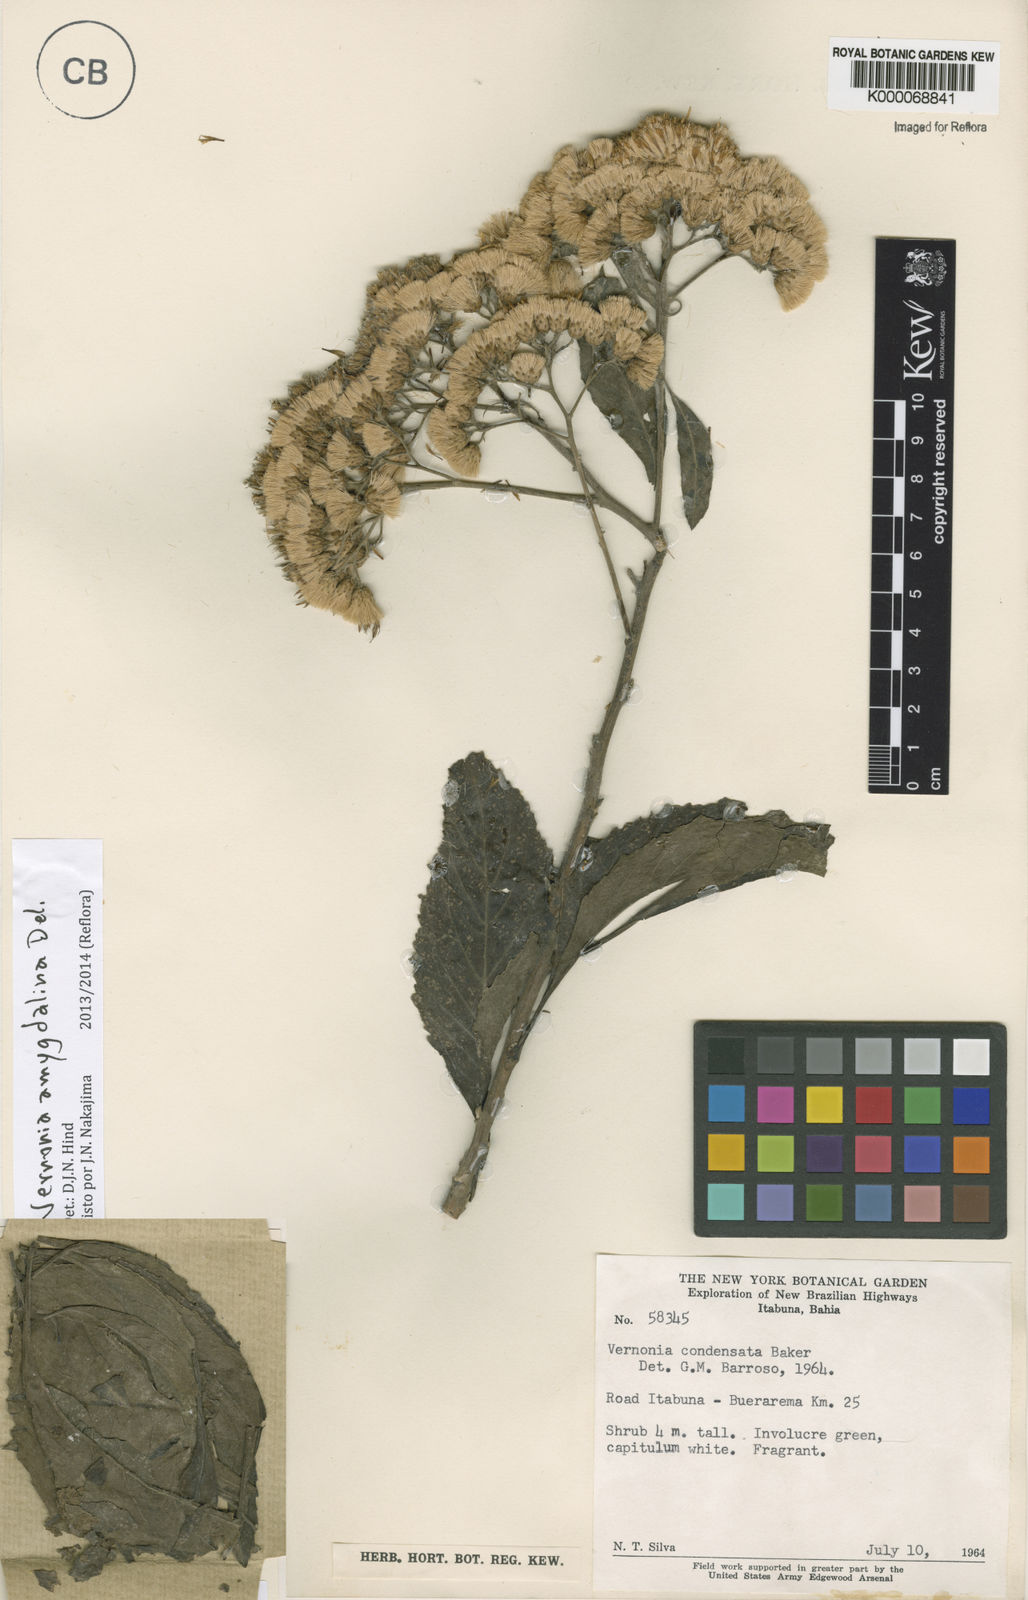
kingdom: Plantae
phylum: Tracheophyta
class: Magnoliopsida
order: Asterales
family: Asteraceae
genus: Gymnanthemum
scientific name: Gymnanthemum amygdalinum
